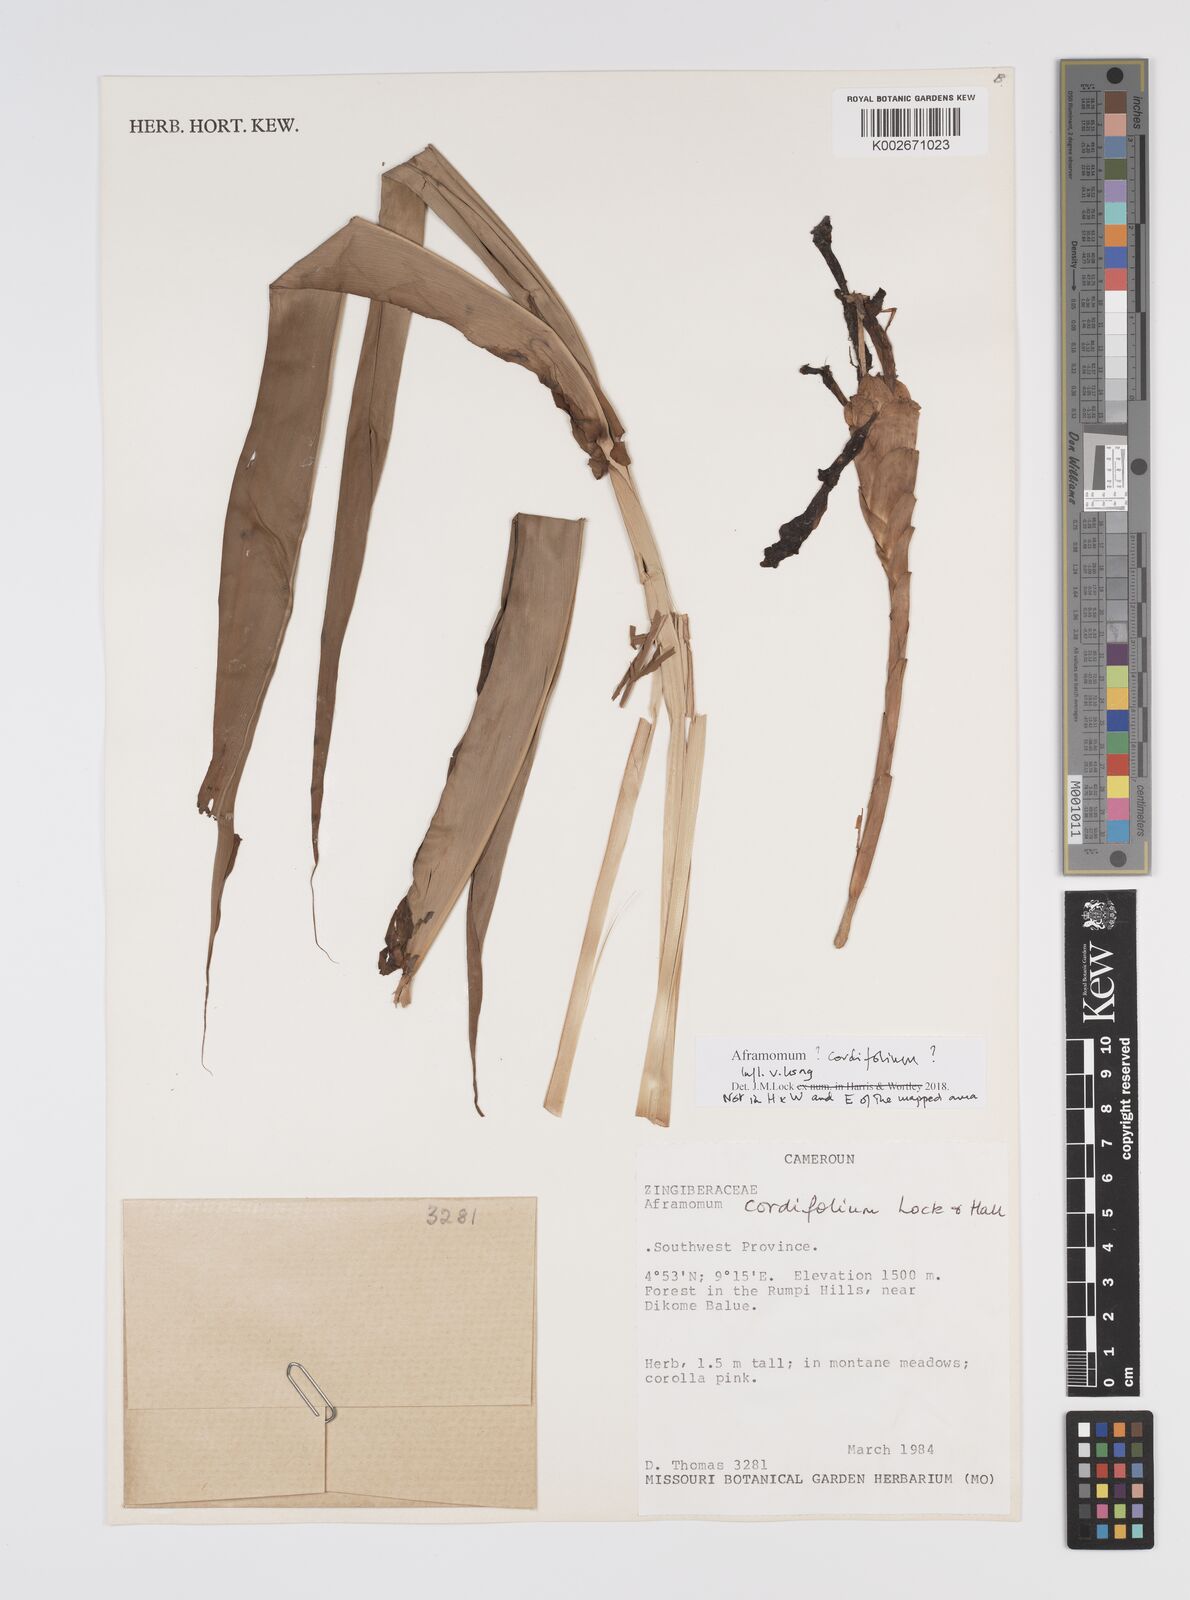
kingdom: Plantae
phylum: Tracheophyta
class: Liliopsida
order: Zingiberales
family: Zingiberaceae
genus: Aframomum
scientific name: Aframomum cordifolium
